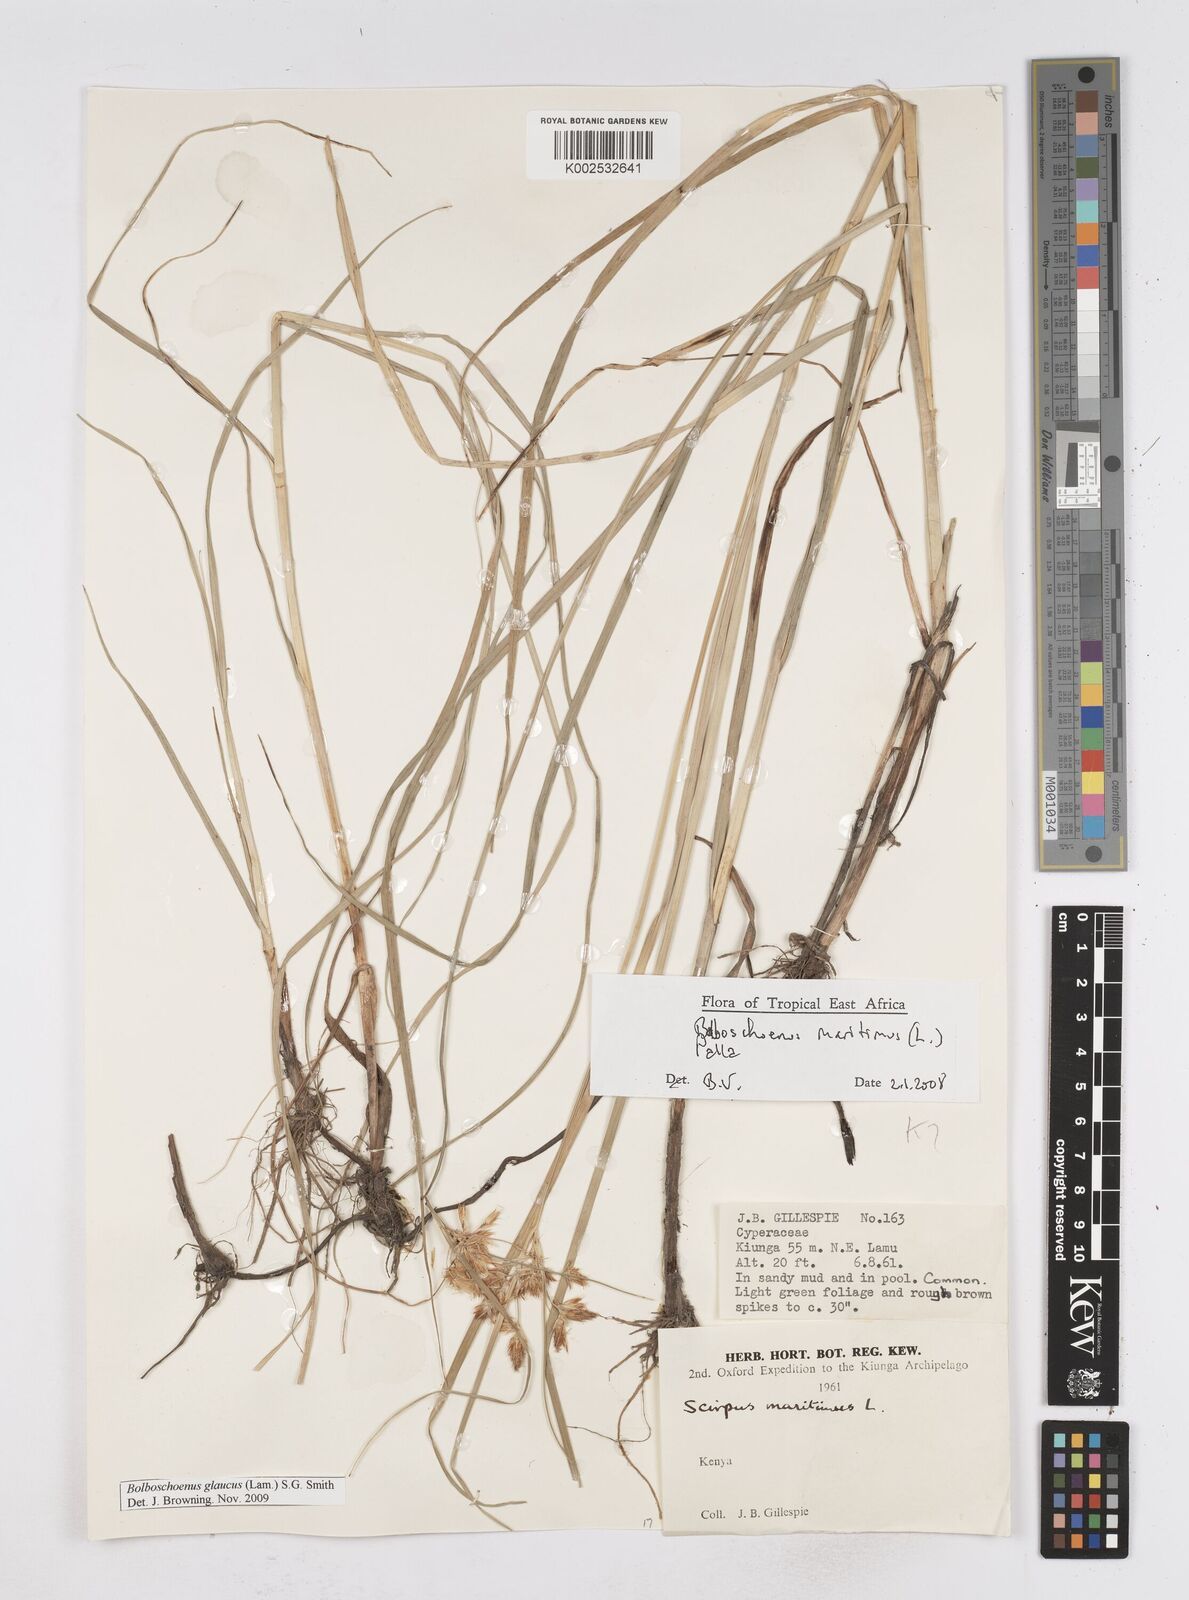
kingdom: Plantae
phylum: Tracheophyta
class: Liliopsida
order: Poales
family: Cyperaceae
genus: Bolboschoenus
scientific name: Bolboschoenus glaucus
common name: Tuberous bulrush
